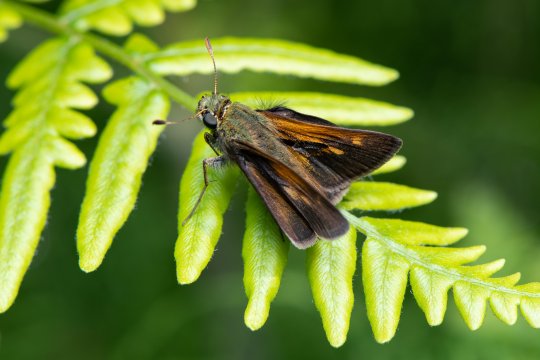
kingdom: Animalia
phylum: Arthropoda
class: Insecta
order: Lepidoptera
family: Hesperiidae
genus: Polites
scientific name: Polites themistocles
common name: Tawny-edged Skipper
